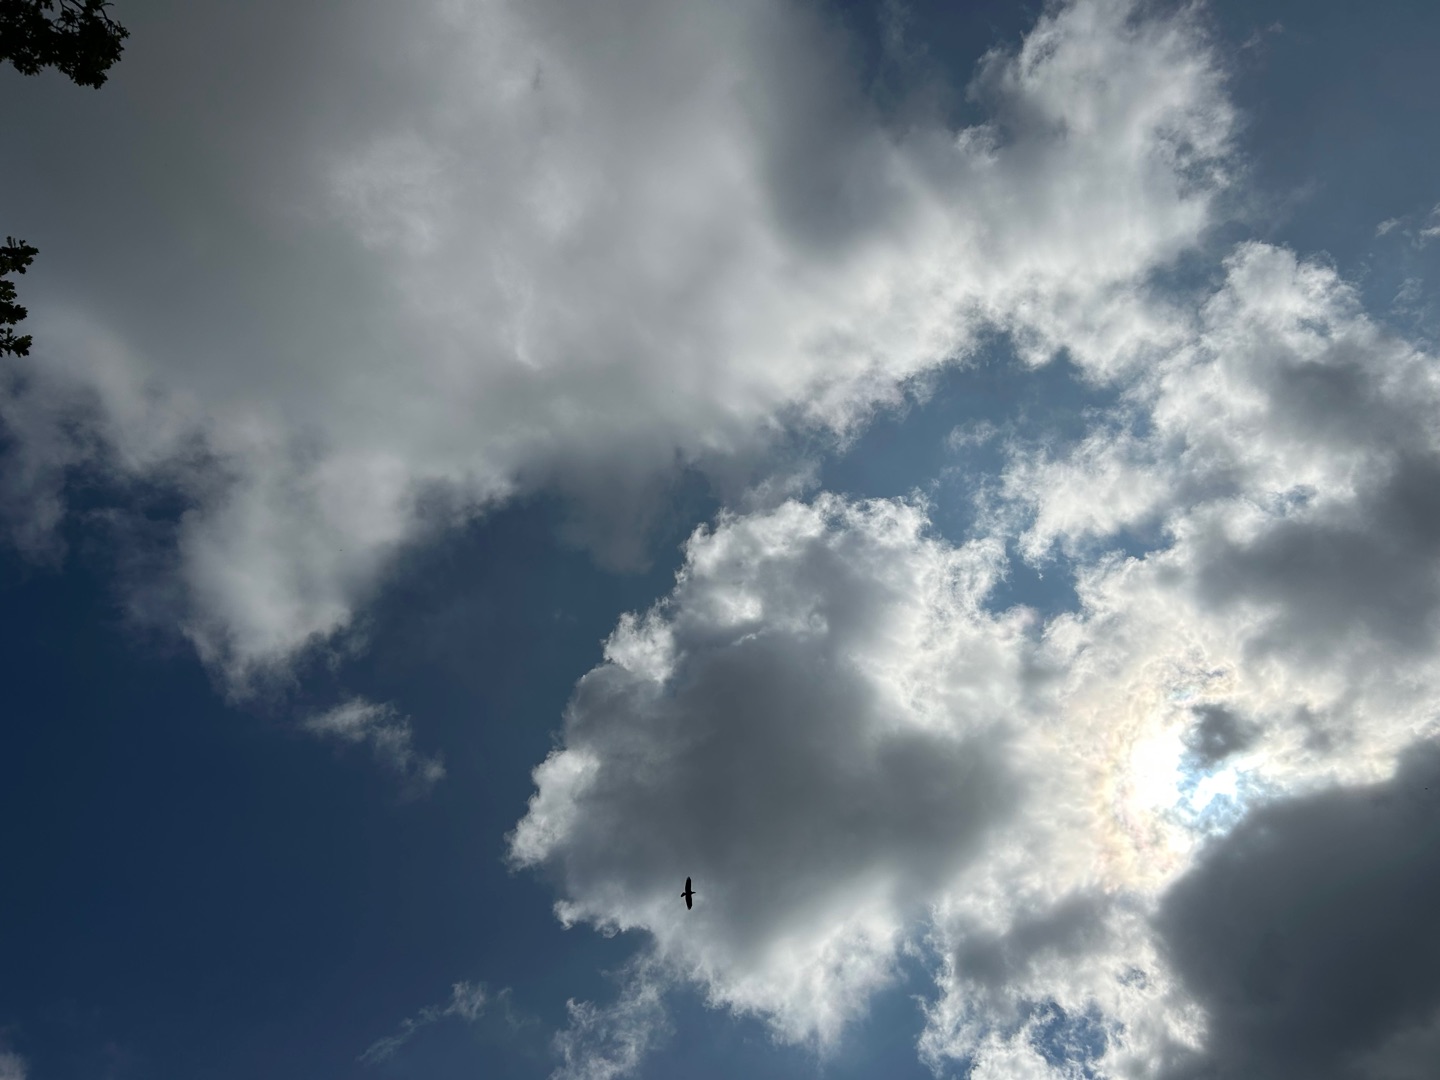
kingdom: Animalia
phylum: Chordata
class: Aves
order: Passeriformes
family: Corvidae
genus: Corvus
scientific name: Corvus corax
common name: Ravn
